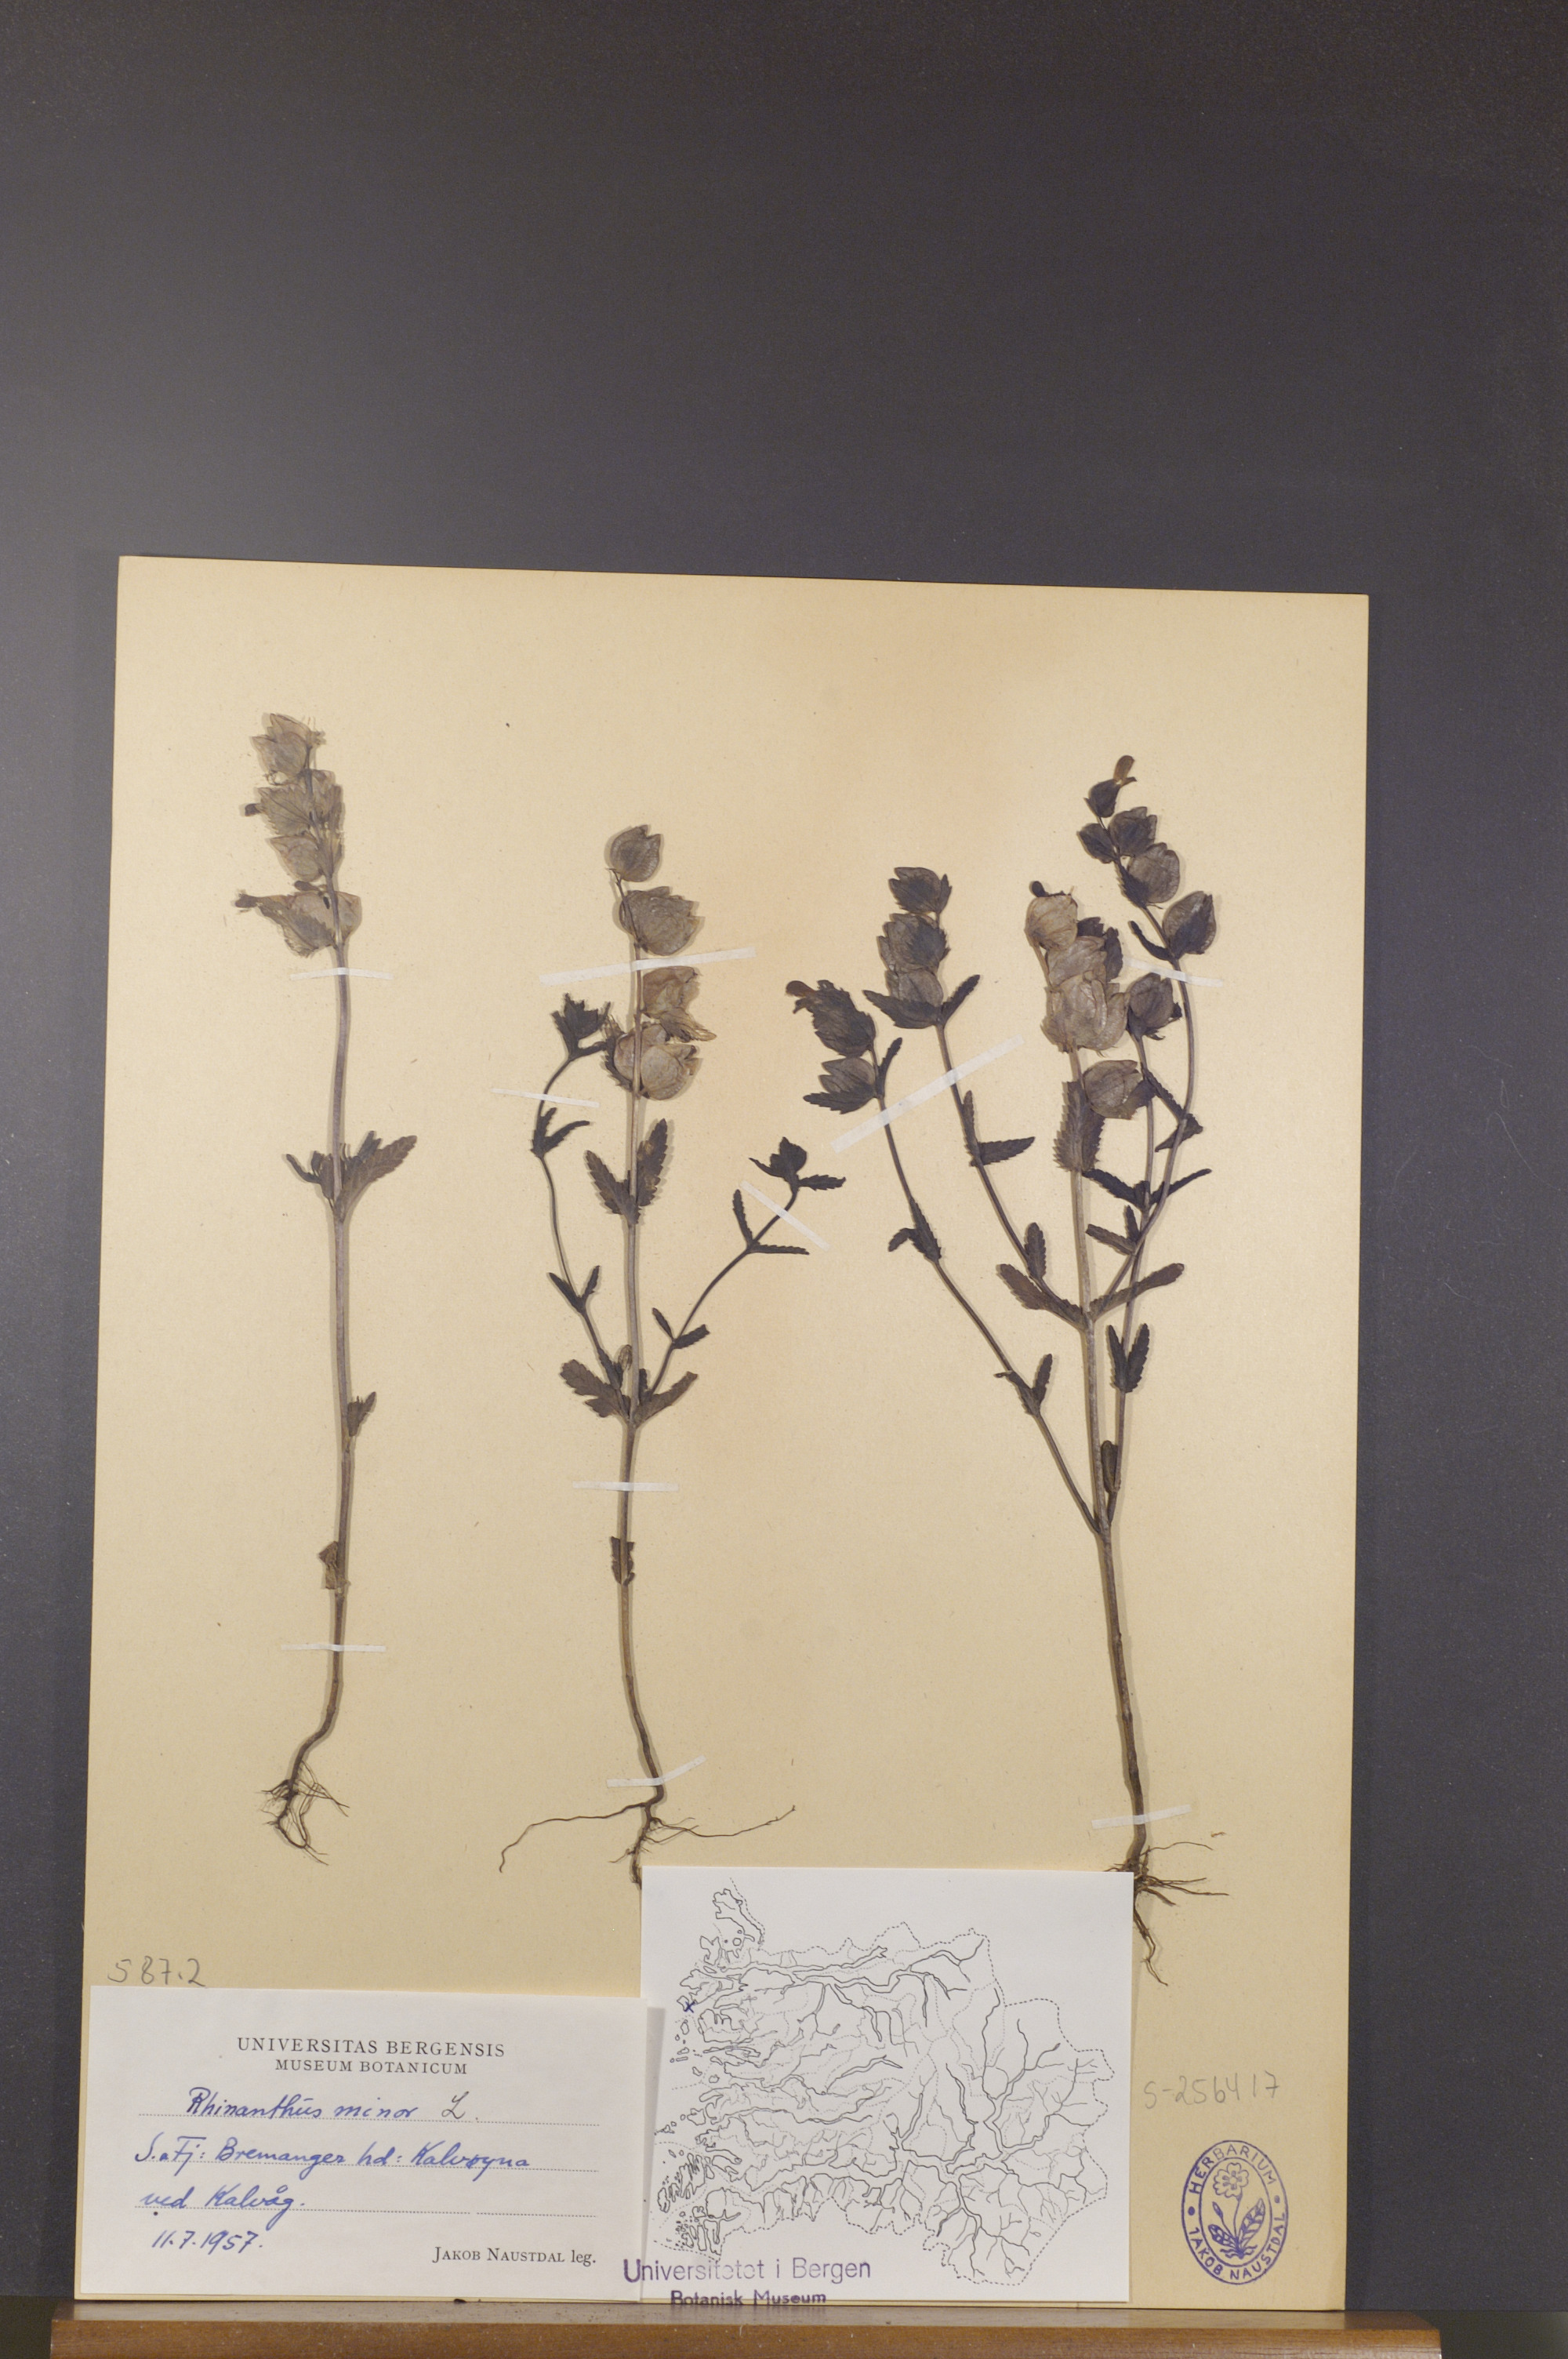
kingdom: Plantae
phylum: Tracheophyta
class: Magnoliopsida
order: Lamiales
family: Orobanchaceae
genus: Rhinanthus
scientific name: Rhinanthus minor
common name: Yellow-rattle
